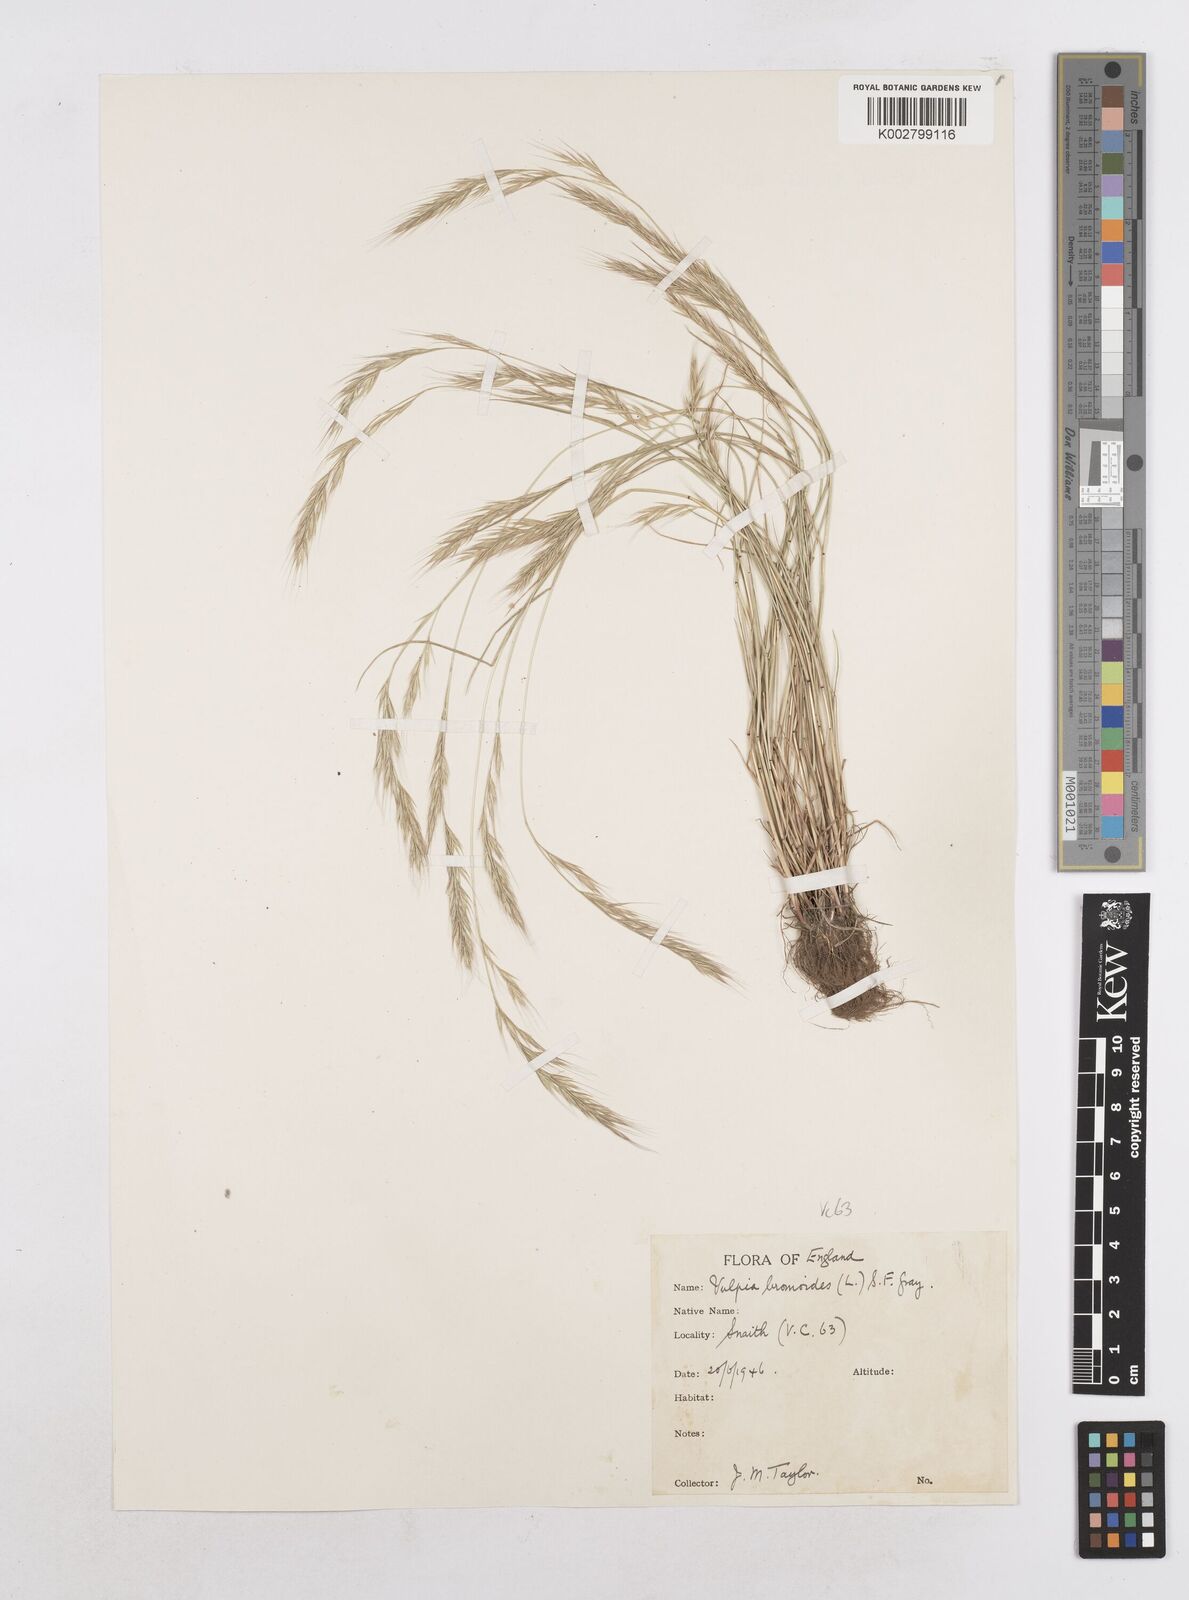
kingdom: Plantae
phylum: Tracheophyta
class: Liliopsida
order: Poales
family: Poaceae
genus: Festuca
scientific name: Festuca bromoides
